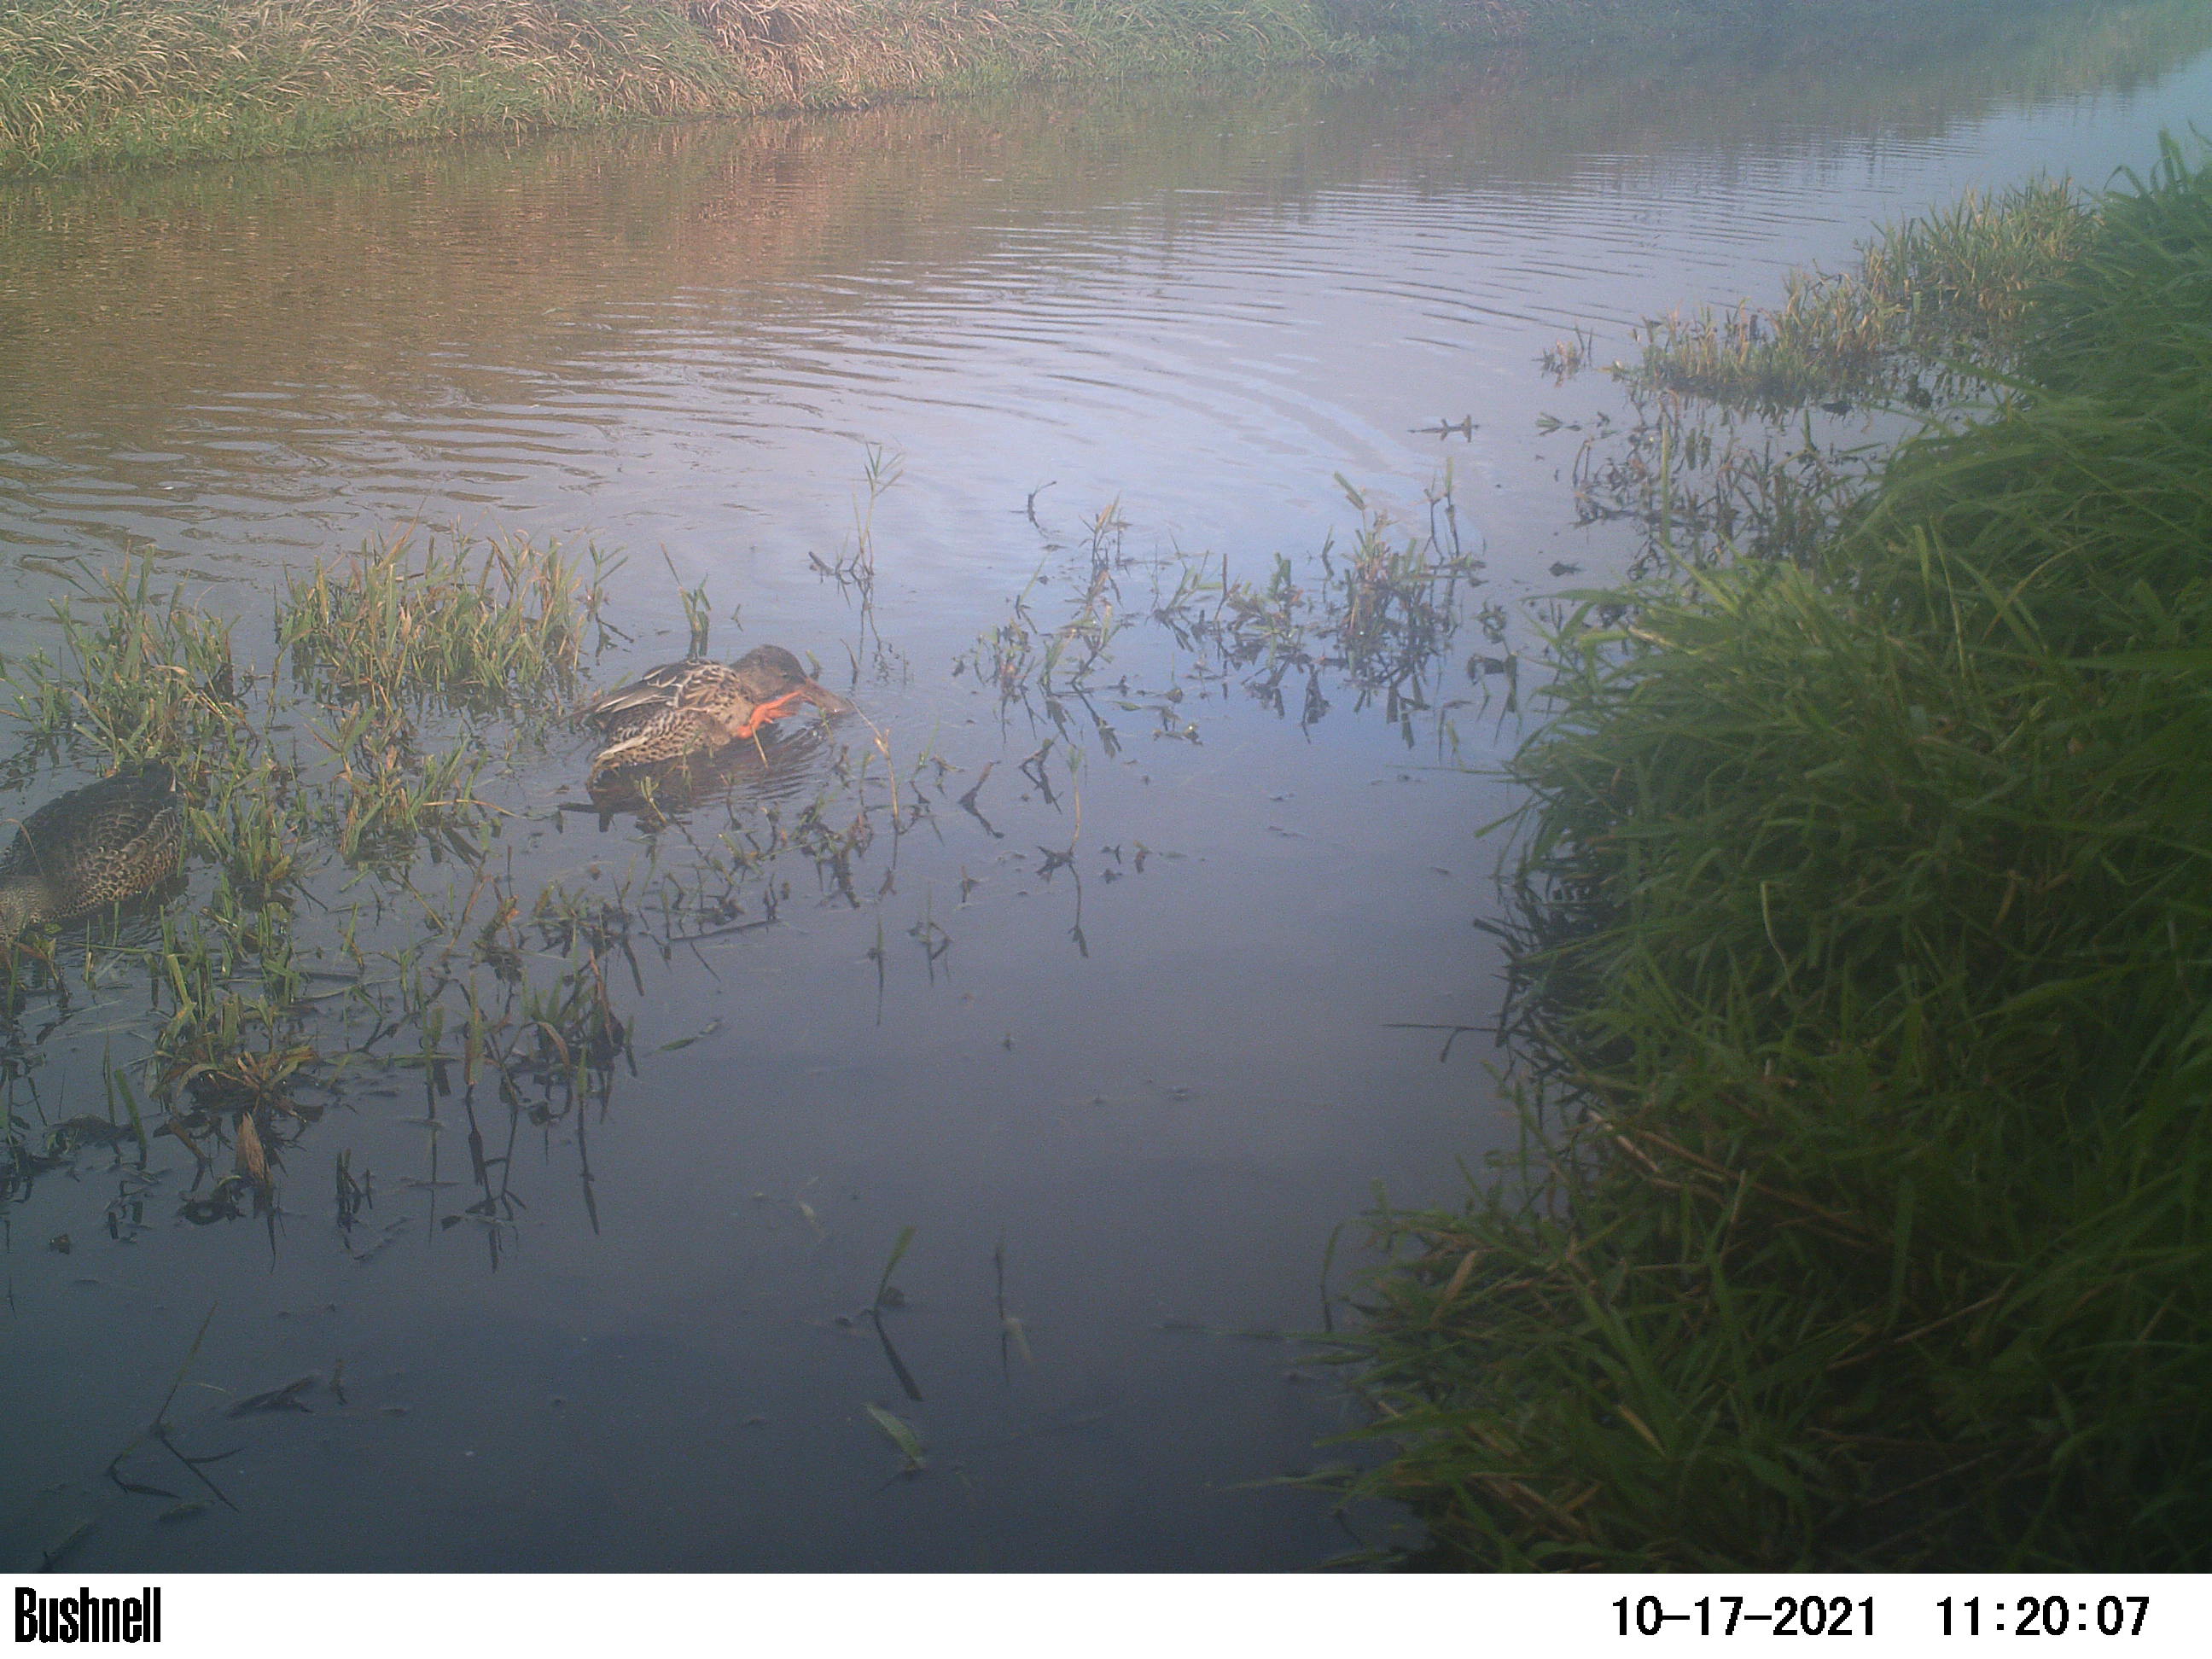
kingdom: Animalia
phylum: Chordata
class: Aves
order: Anseriformes
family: Anatidae
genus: Anas
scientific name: Anas
